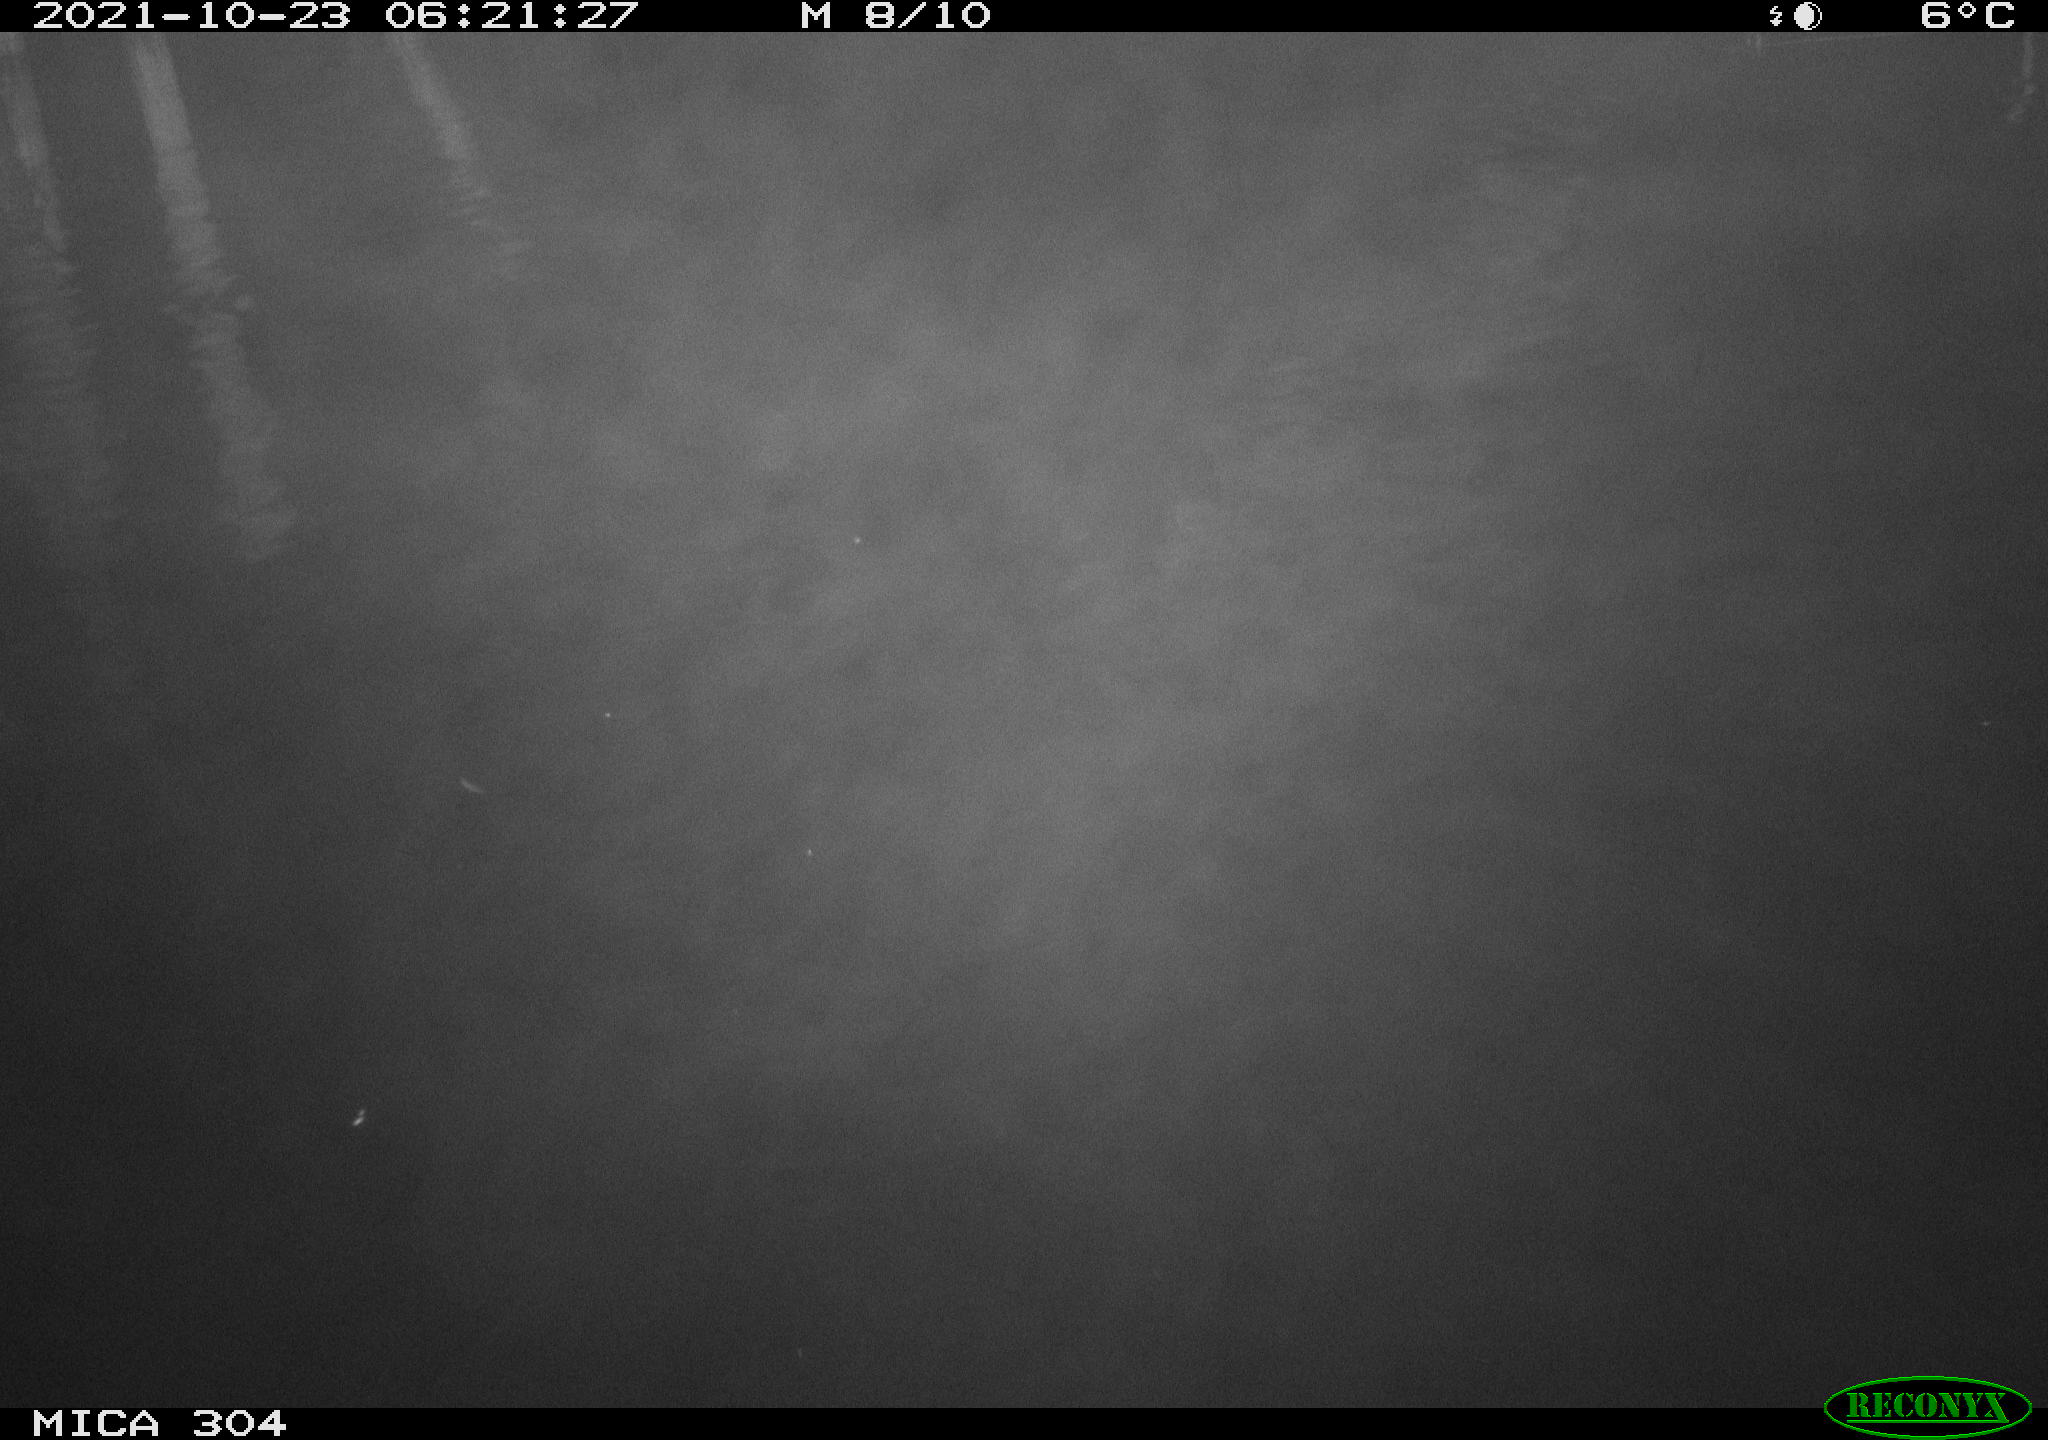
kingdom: Animalia
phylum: Chordata
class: Mammalia
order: Rodentia
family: Muridae
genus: Rattus
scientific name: Rattus norvegicus
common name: Brown rat
